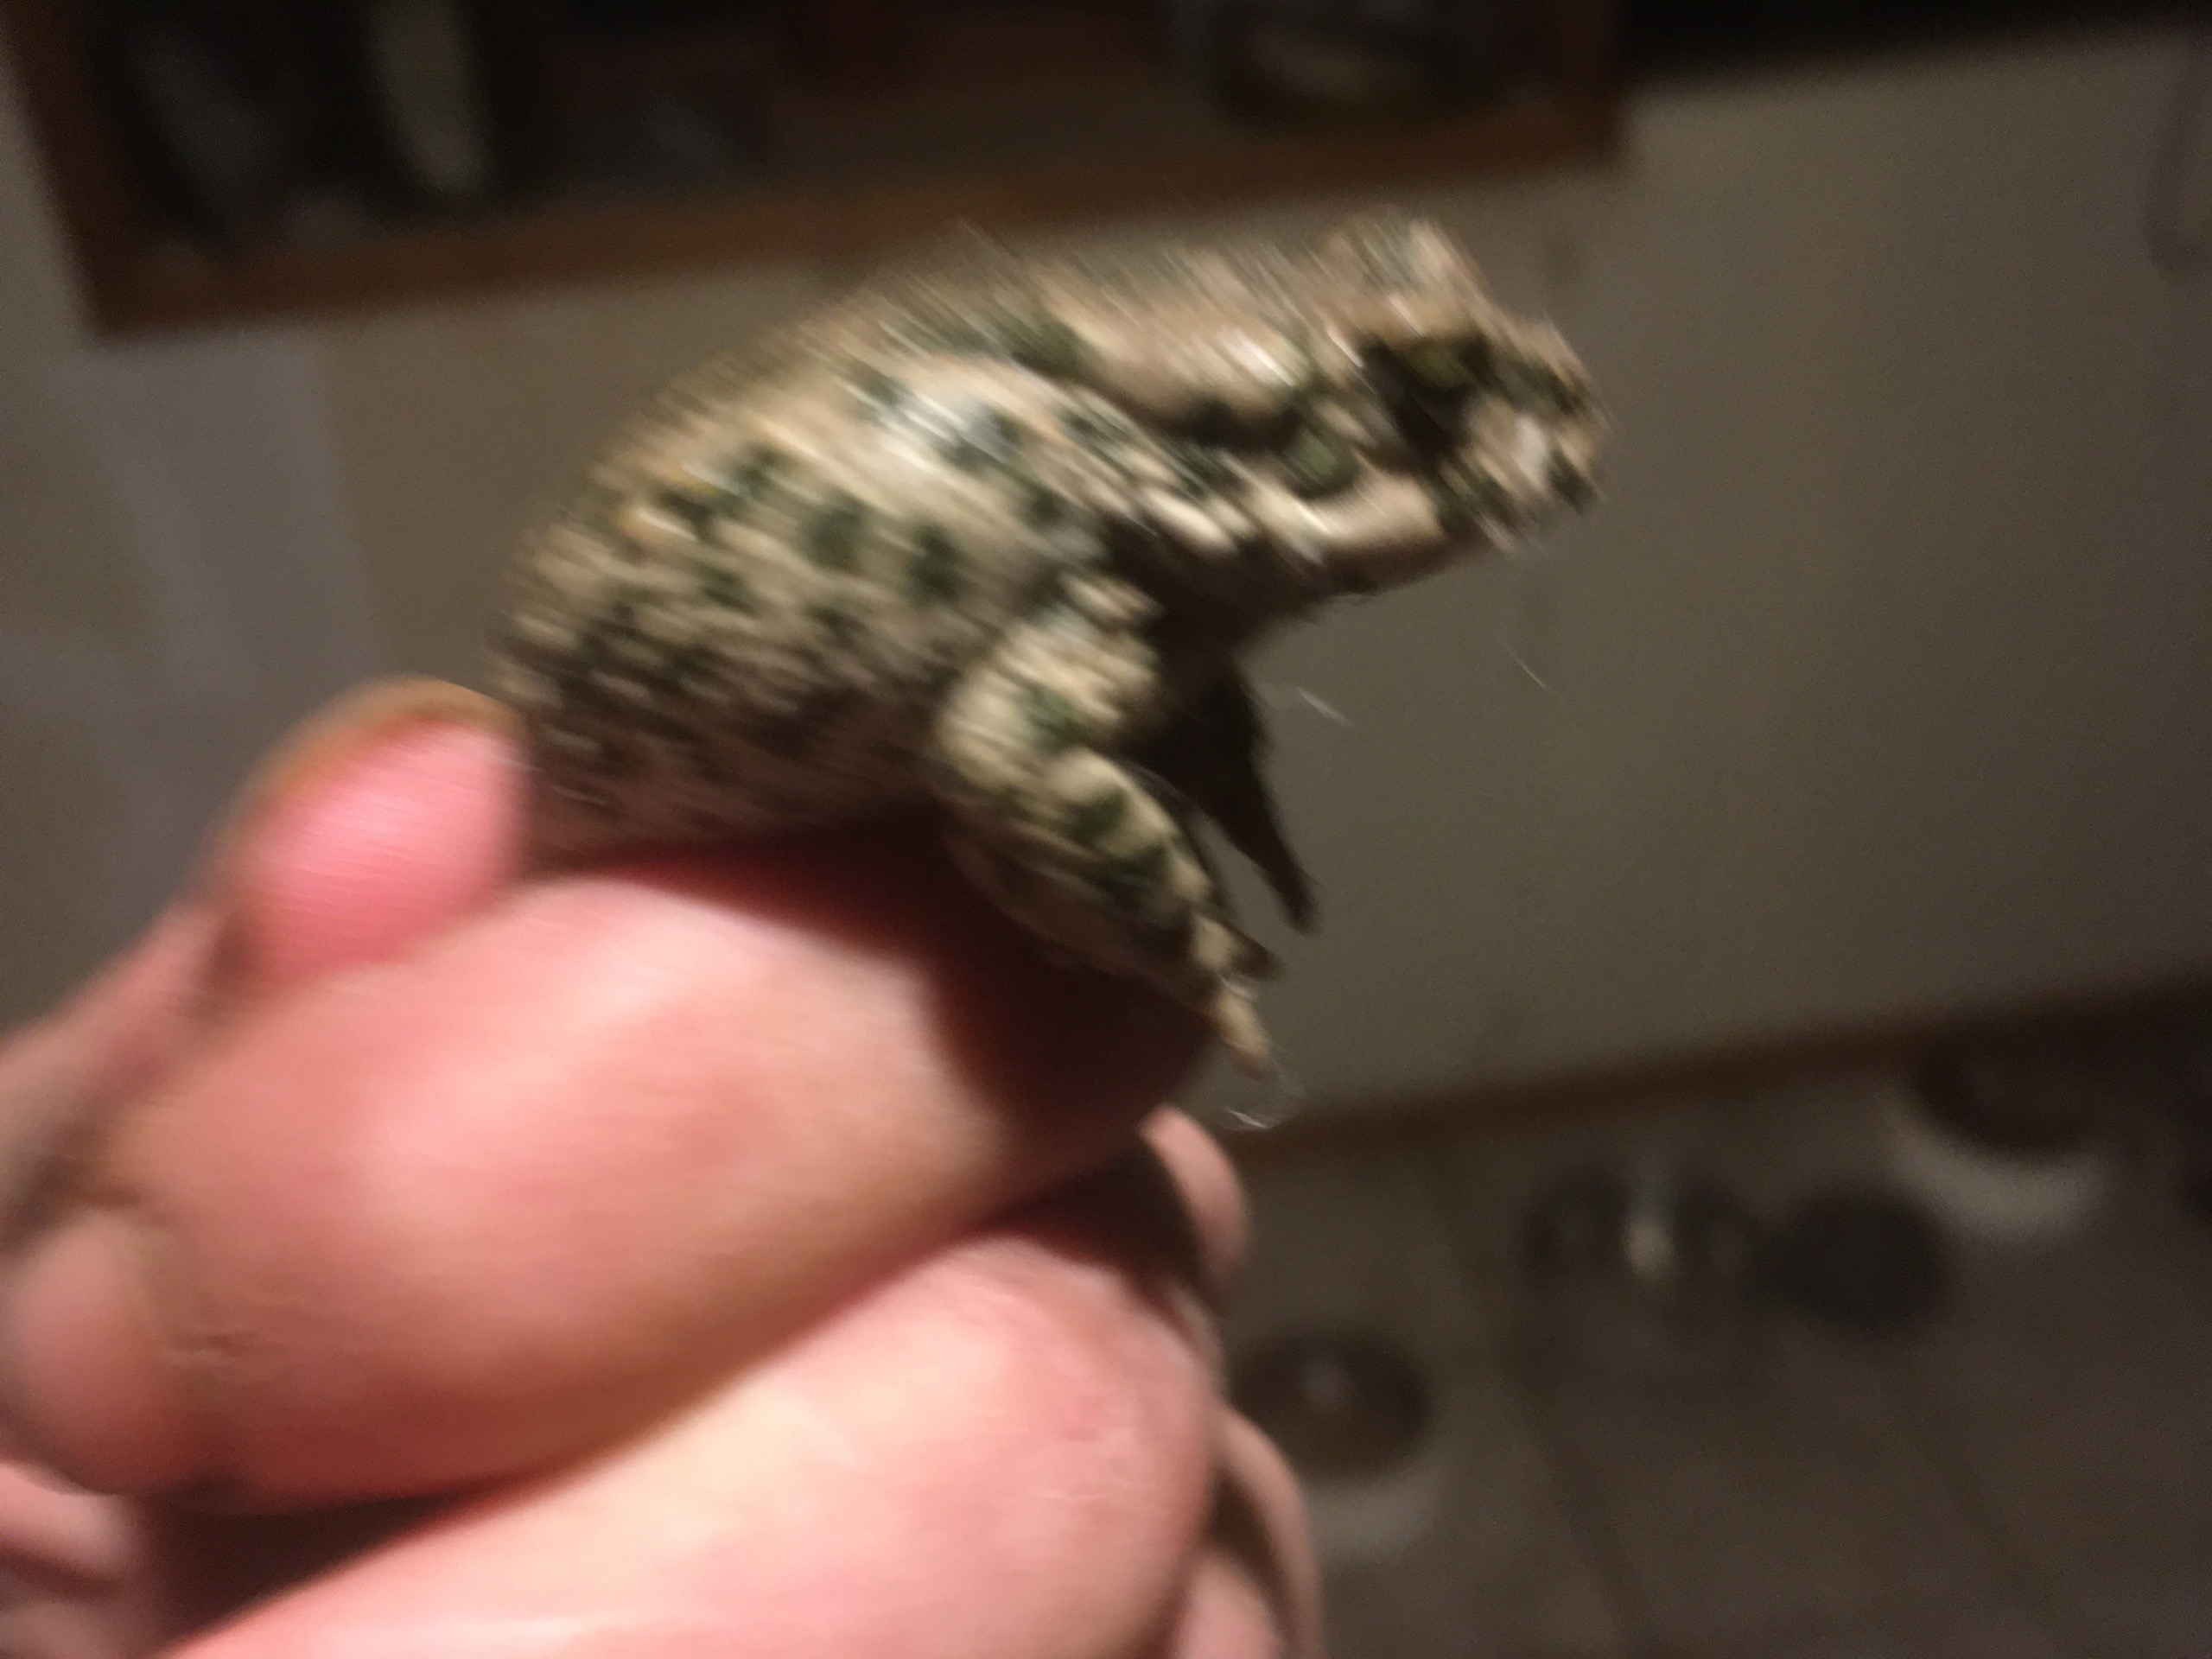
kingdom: Animalia
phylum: Chordata
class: Amphibia
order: Anura
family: Bufonidae
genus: Bufotes
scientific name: Bufotes viridis
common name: Grønbroget tudse
